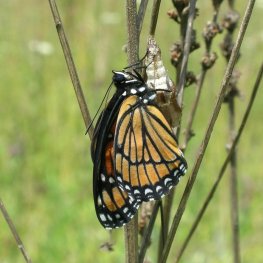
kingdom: Animalia
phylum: Arthropoda
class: Insecta
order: Lepidoptera
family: Nymphalidae
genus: Limenitis
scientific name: Limenitis archippus
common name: Viceroy
